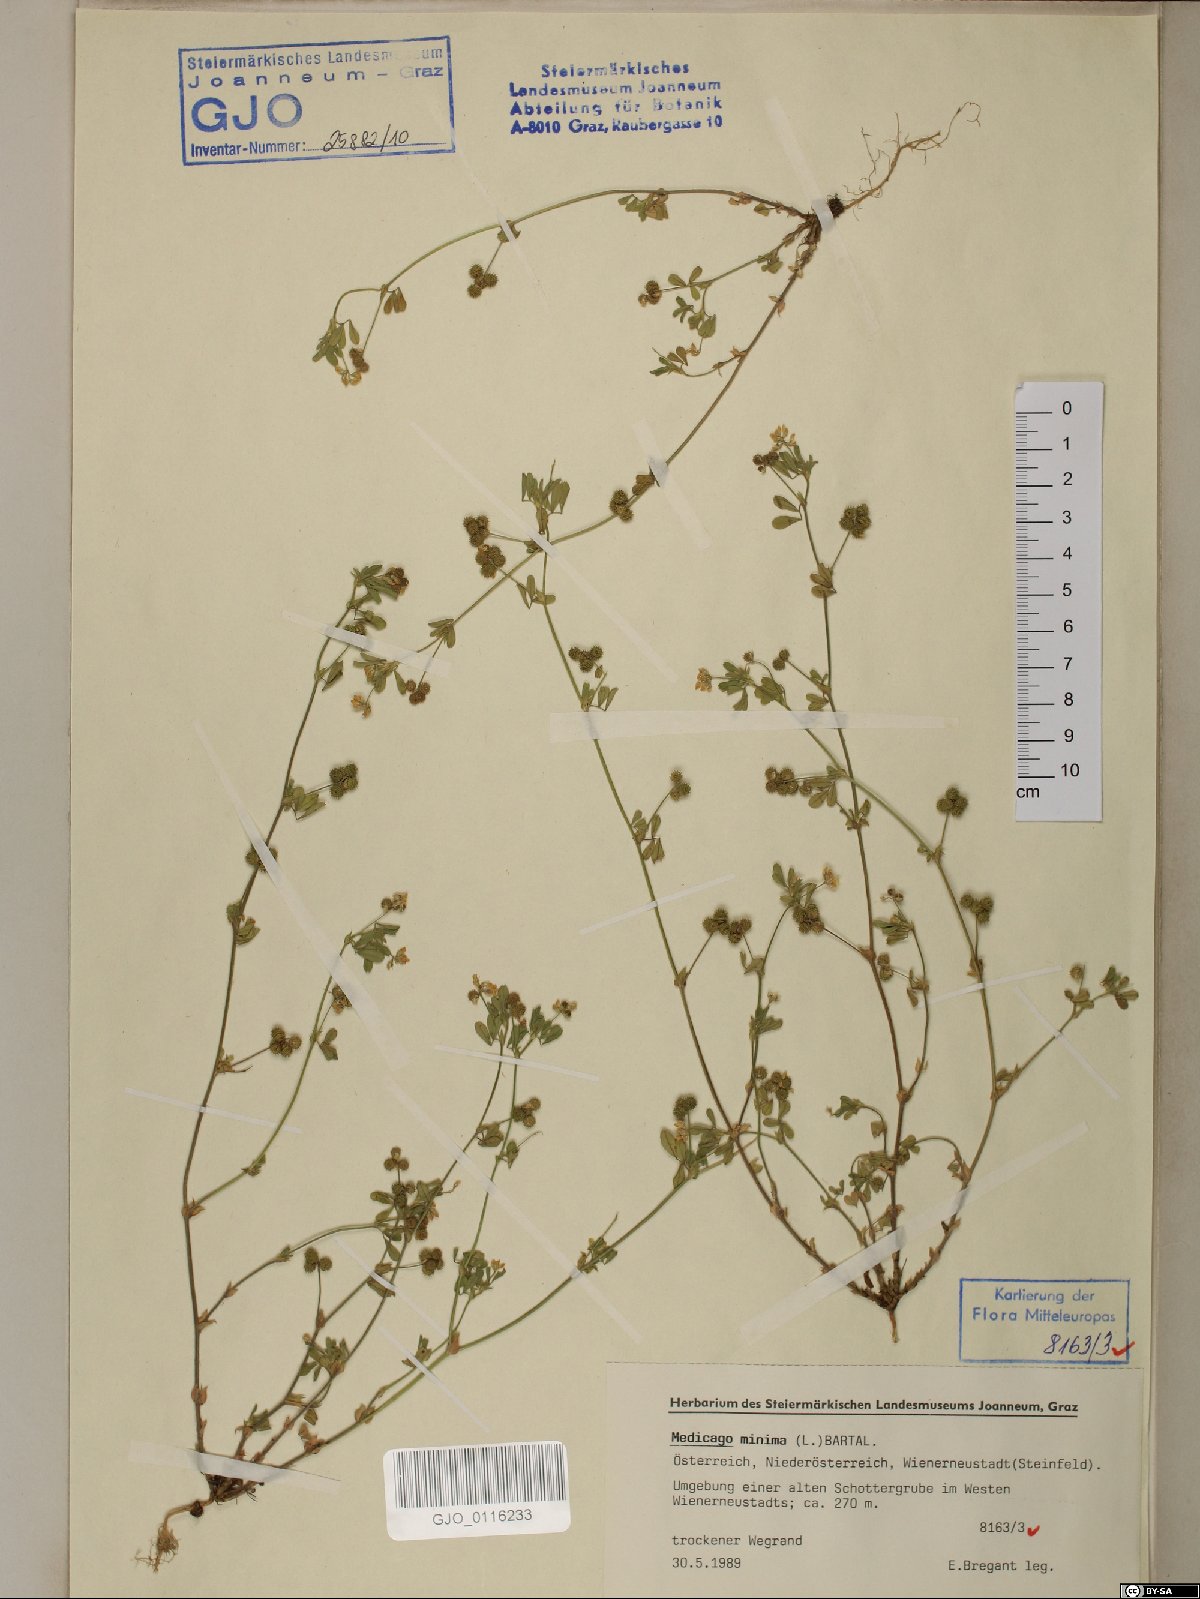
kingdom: Plantae
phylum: Tracheophyta
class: Magnoliopsida
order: Fabales
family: Fabaceae
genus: Medicago
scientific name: Medicago minima
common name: Little bur-clover
